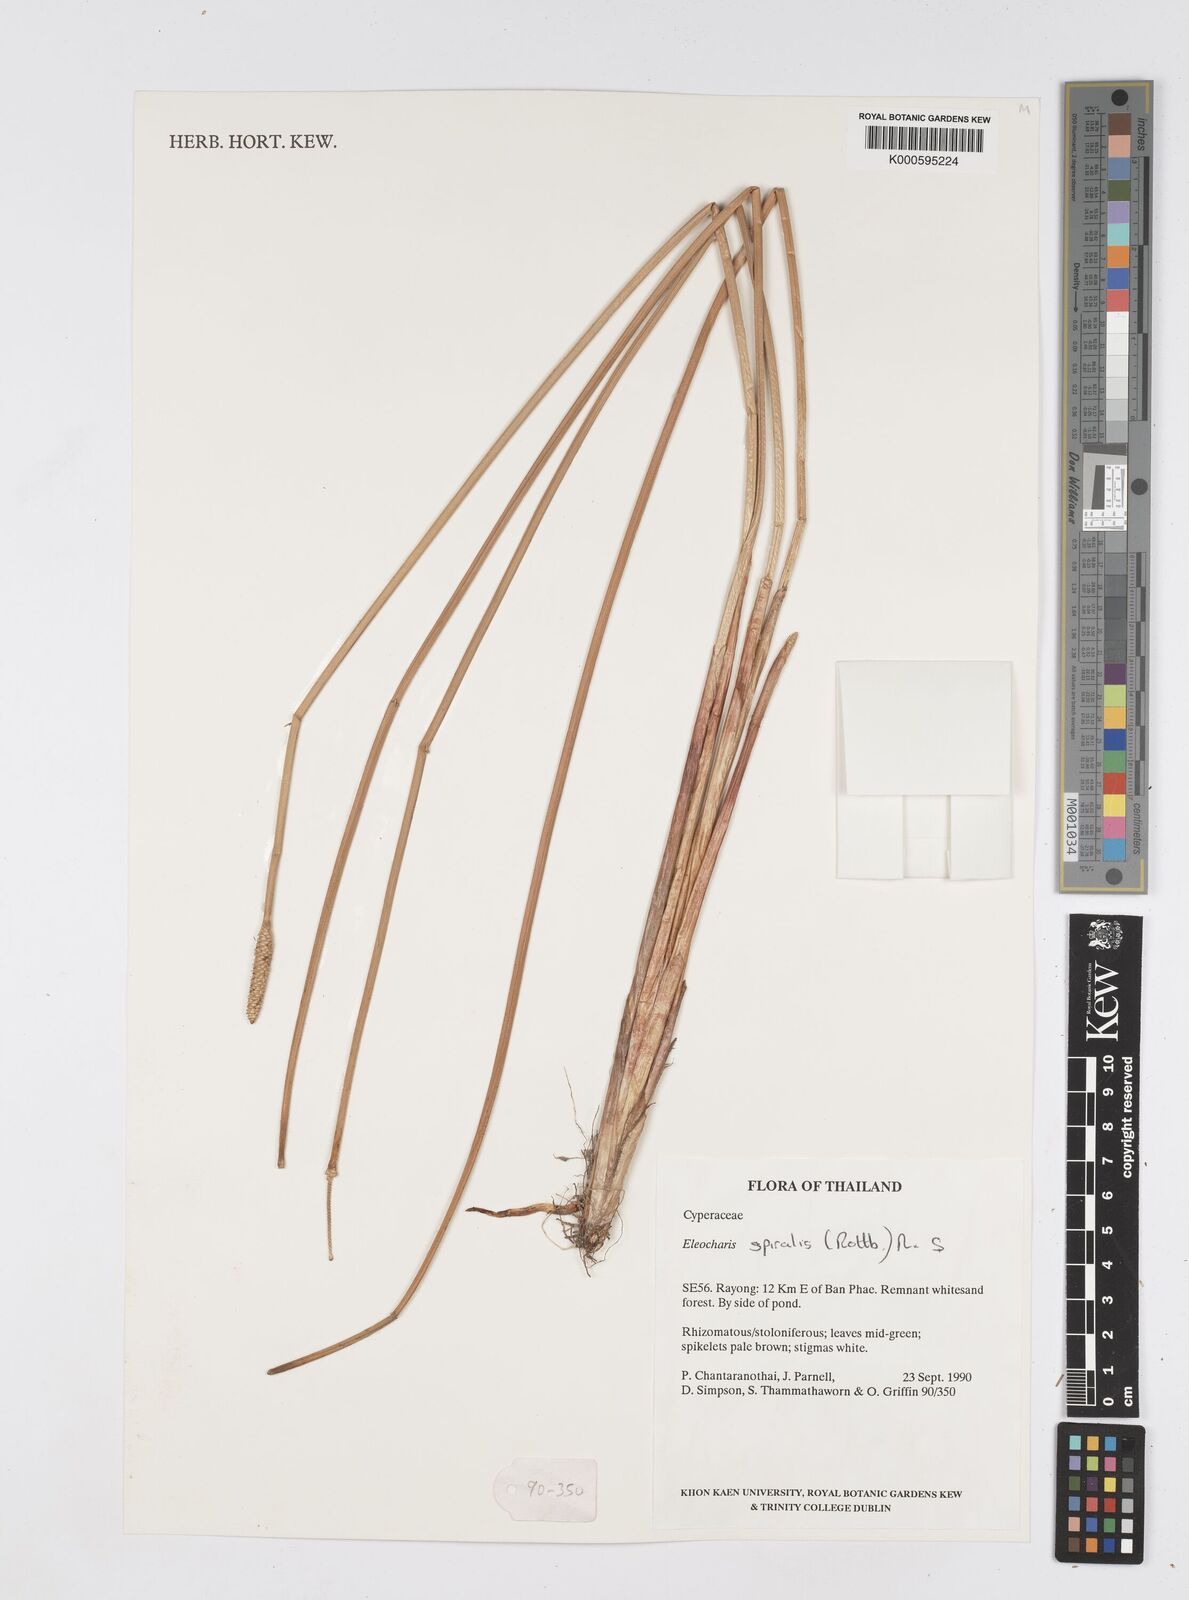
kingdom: Plantae
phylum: Tracheophyta
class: Liliopsida
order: Poales
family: Cyperaceae
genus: Eleocharis
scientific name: Eleocharis spiralis
